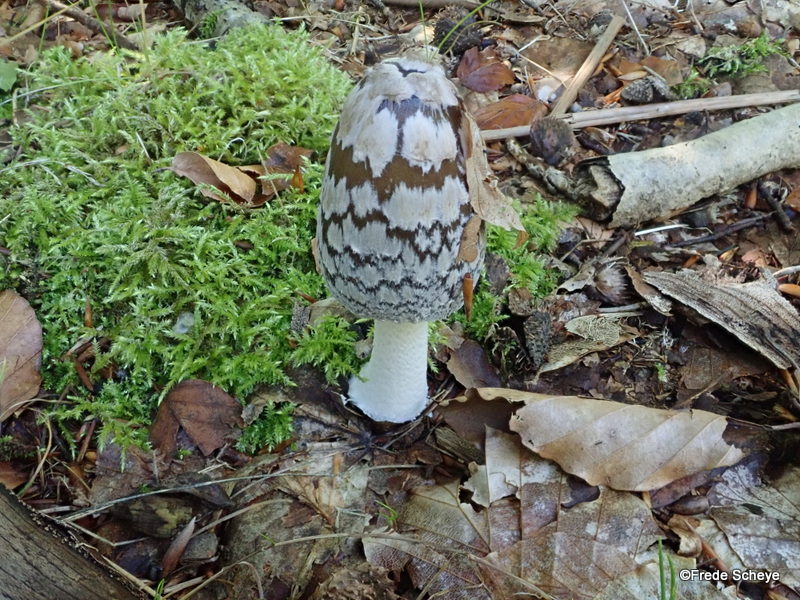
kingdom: Fungi
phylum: Basidiomycota
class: Agaricomycetes
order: Agaricales
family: Psathyrellaceae
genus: Coprinopsis
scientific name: Coprinopsis picacea
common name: skade-blækhat
